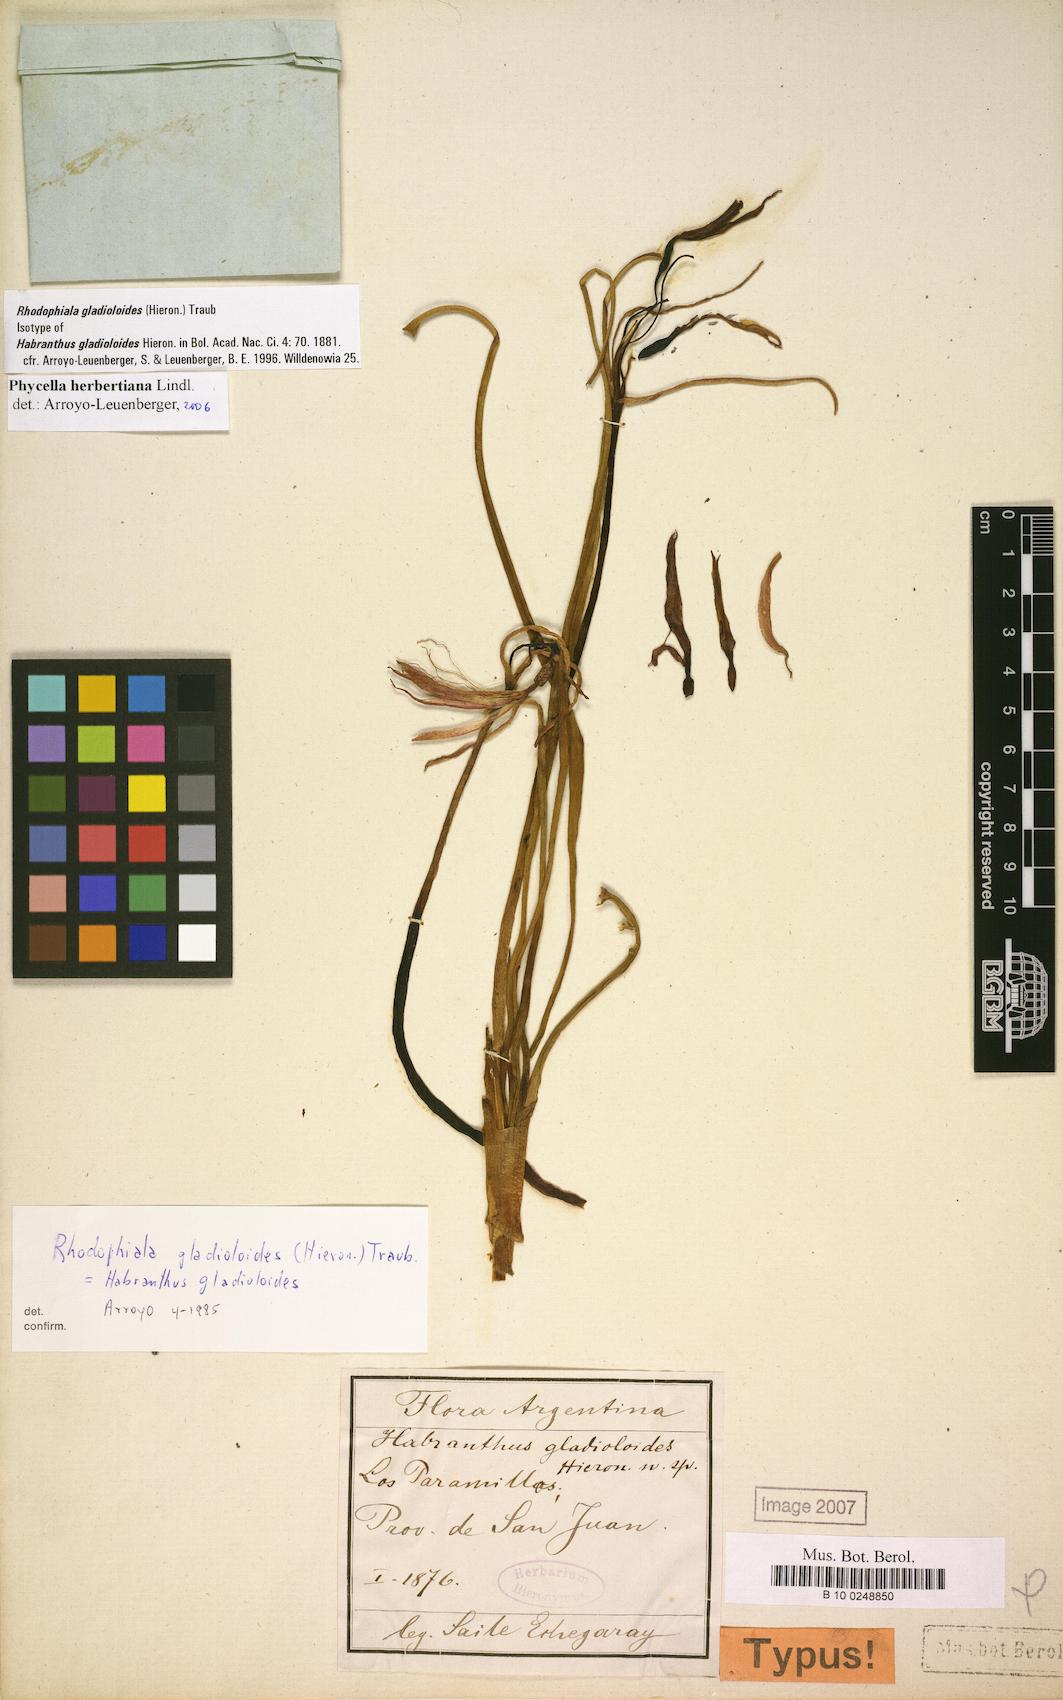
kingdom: Plantae
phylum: Tracheophyta
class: Liliopsida
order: Asparagales
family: Amaryllidaceae
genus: Zephyranthes
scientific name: Zephyranthes graciliflora
